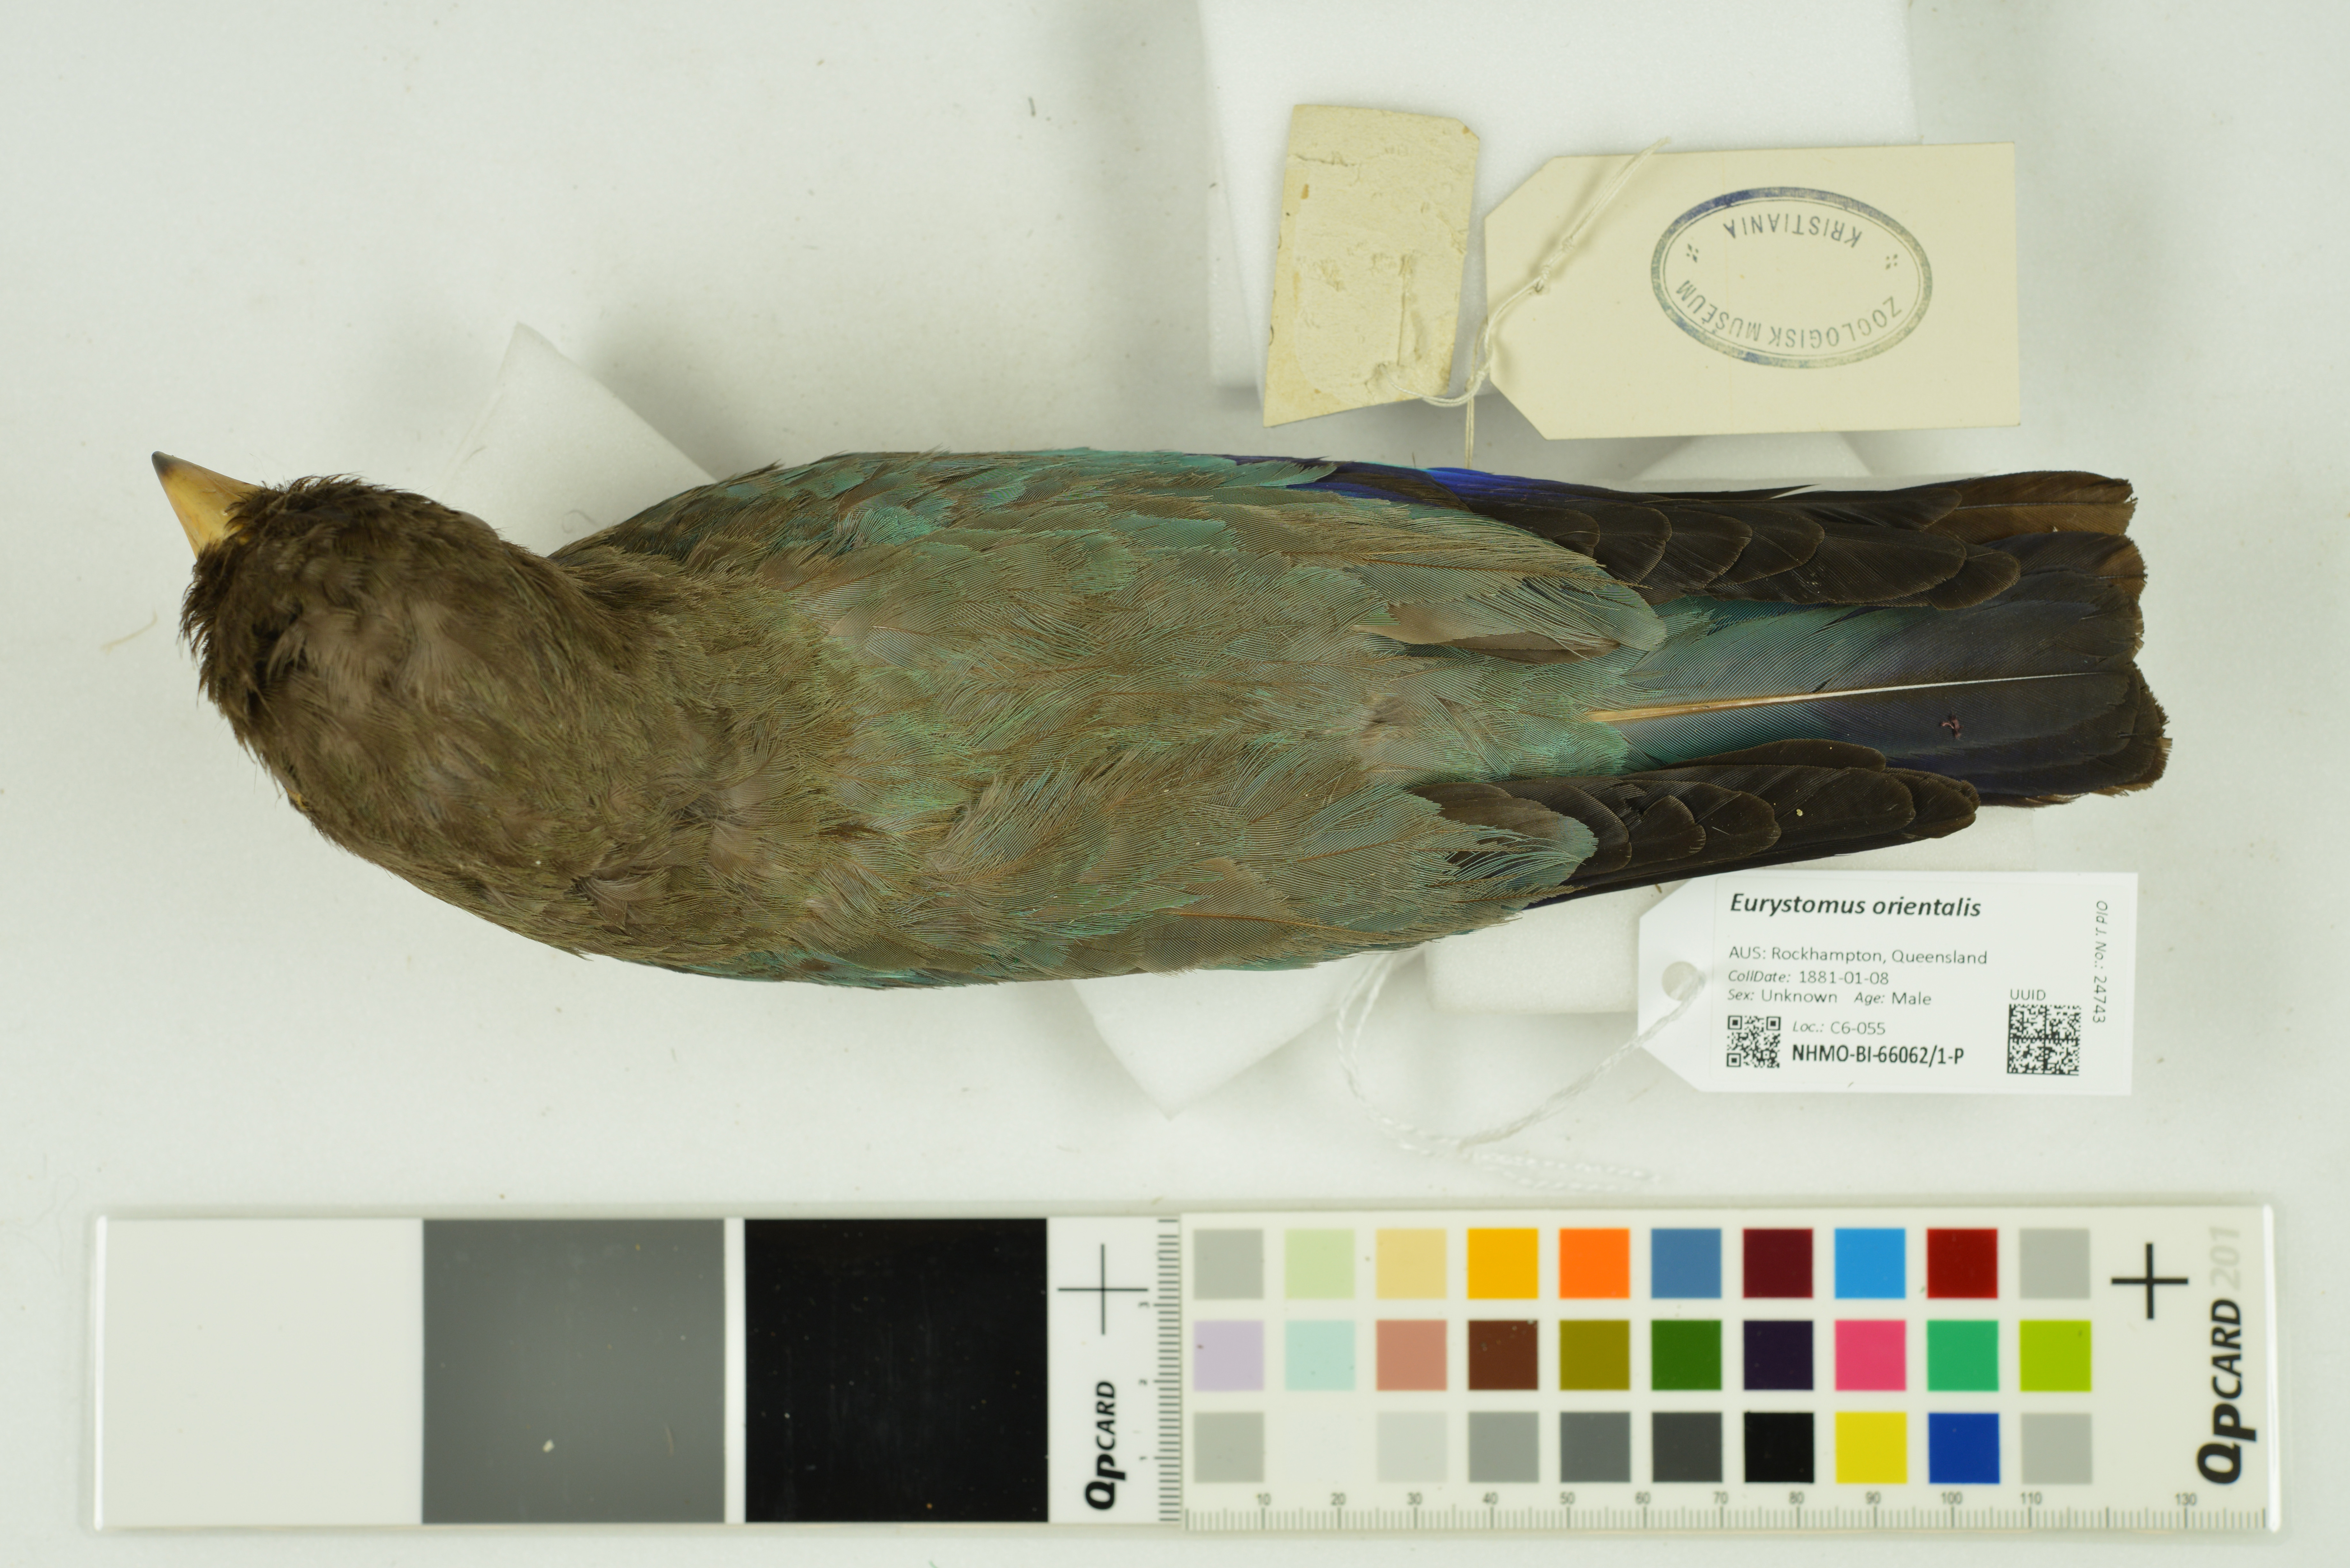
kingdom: Animalia
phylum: Chordata
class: Aves
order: Coraciiformes
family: Coraciidae
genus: Eurystomus
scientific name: Eurystomus orientalis
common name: Oriental dollarbird
